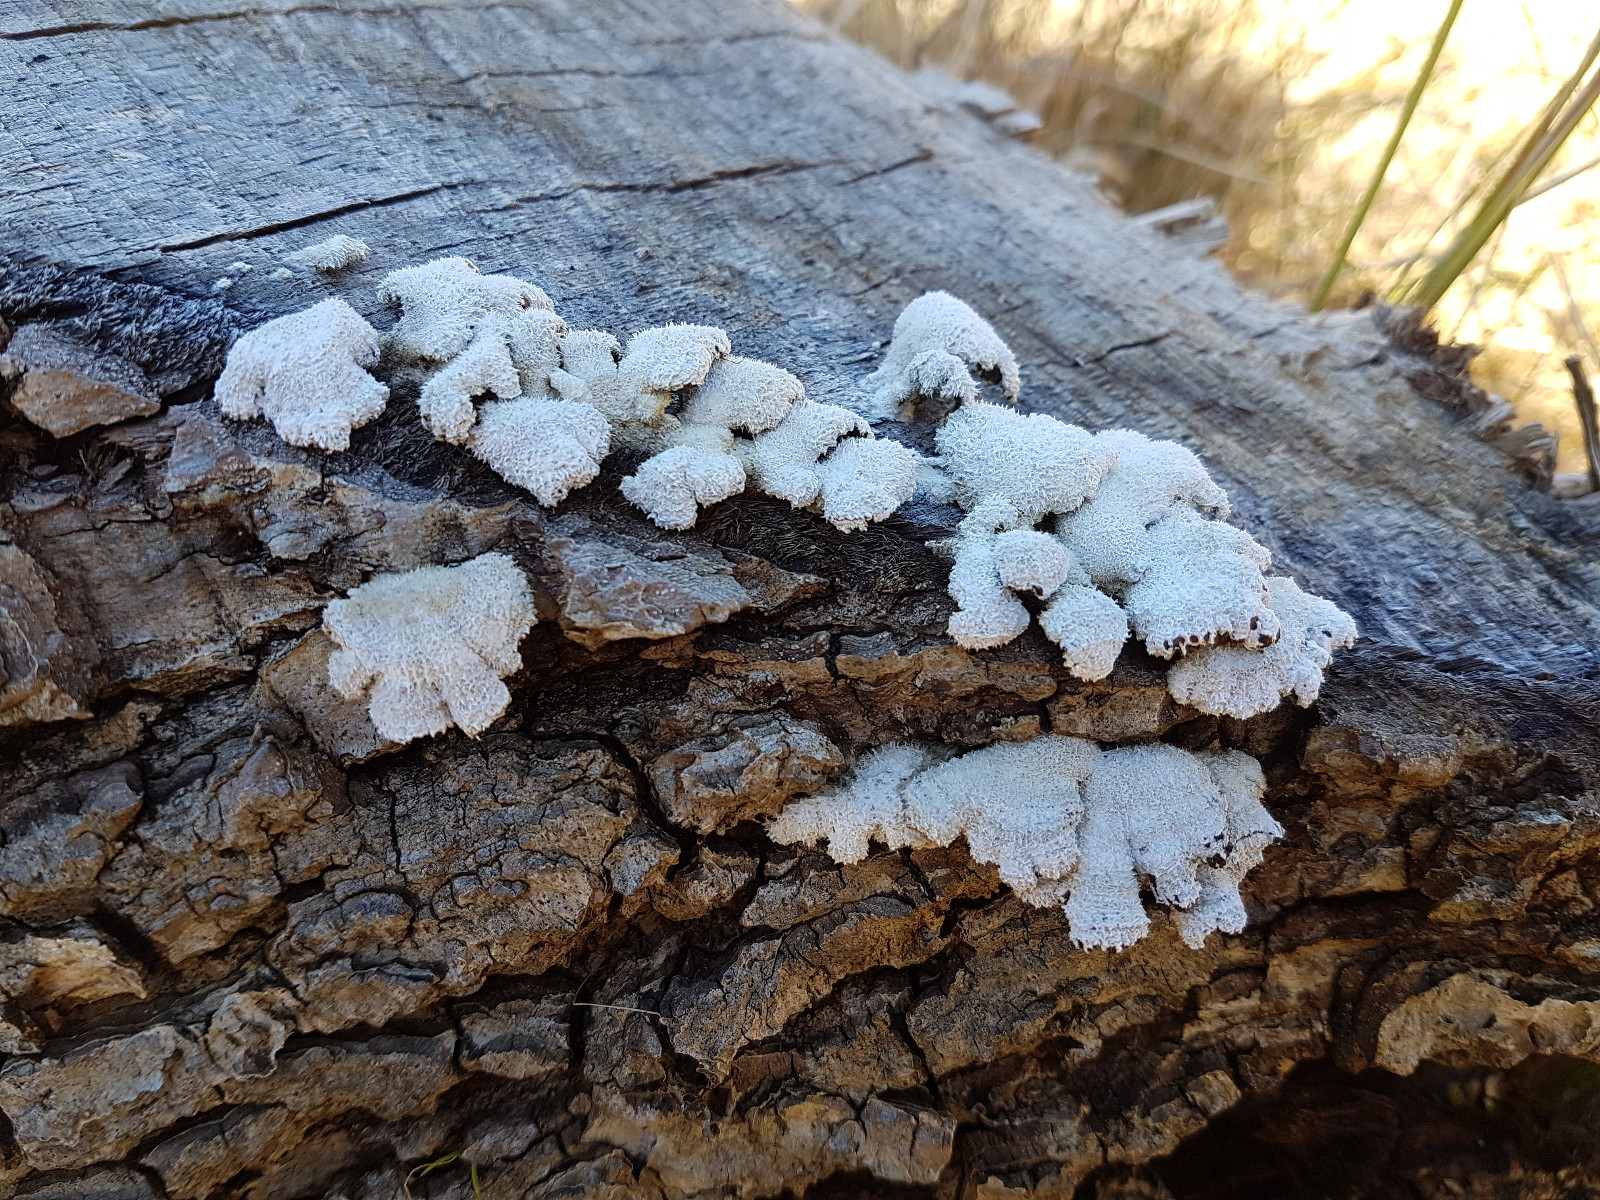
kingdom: Fungi
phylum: Basidiomycota
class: Agaricomycetes
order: Agaricales
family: Schizophyllaceae
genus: Schizophyllum
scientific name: Schizophyllum commune
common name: kløvblad
